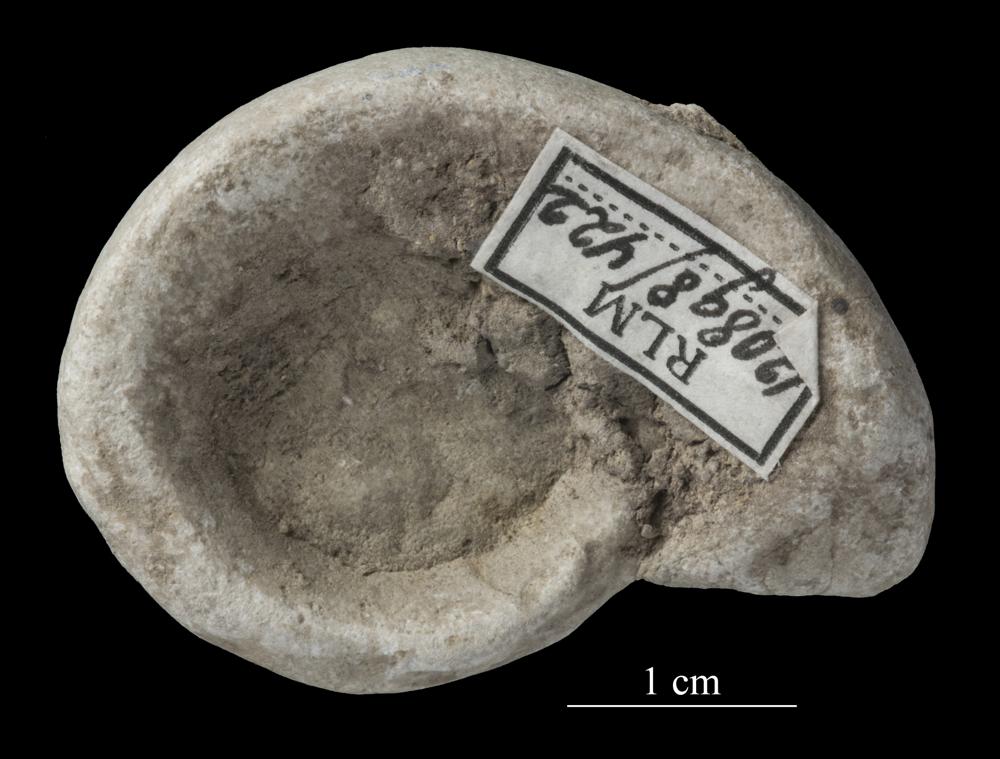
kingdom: Animalia
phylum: Mollusca
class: Gastropoda
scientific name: Gastropoda
